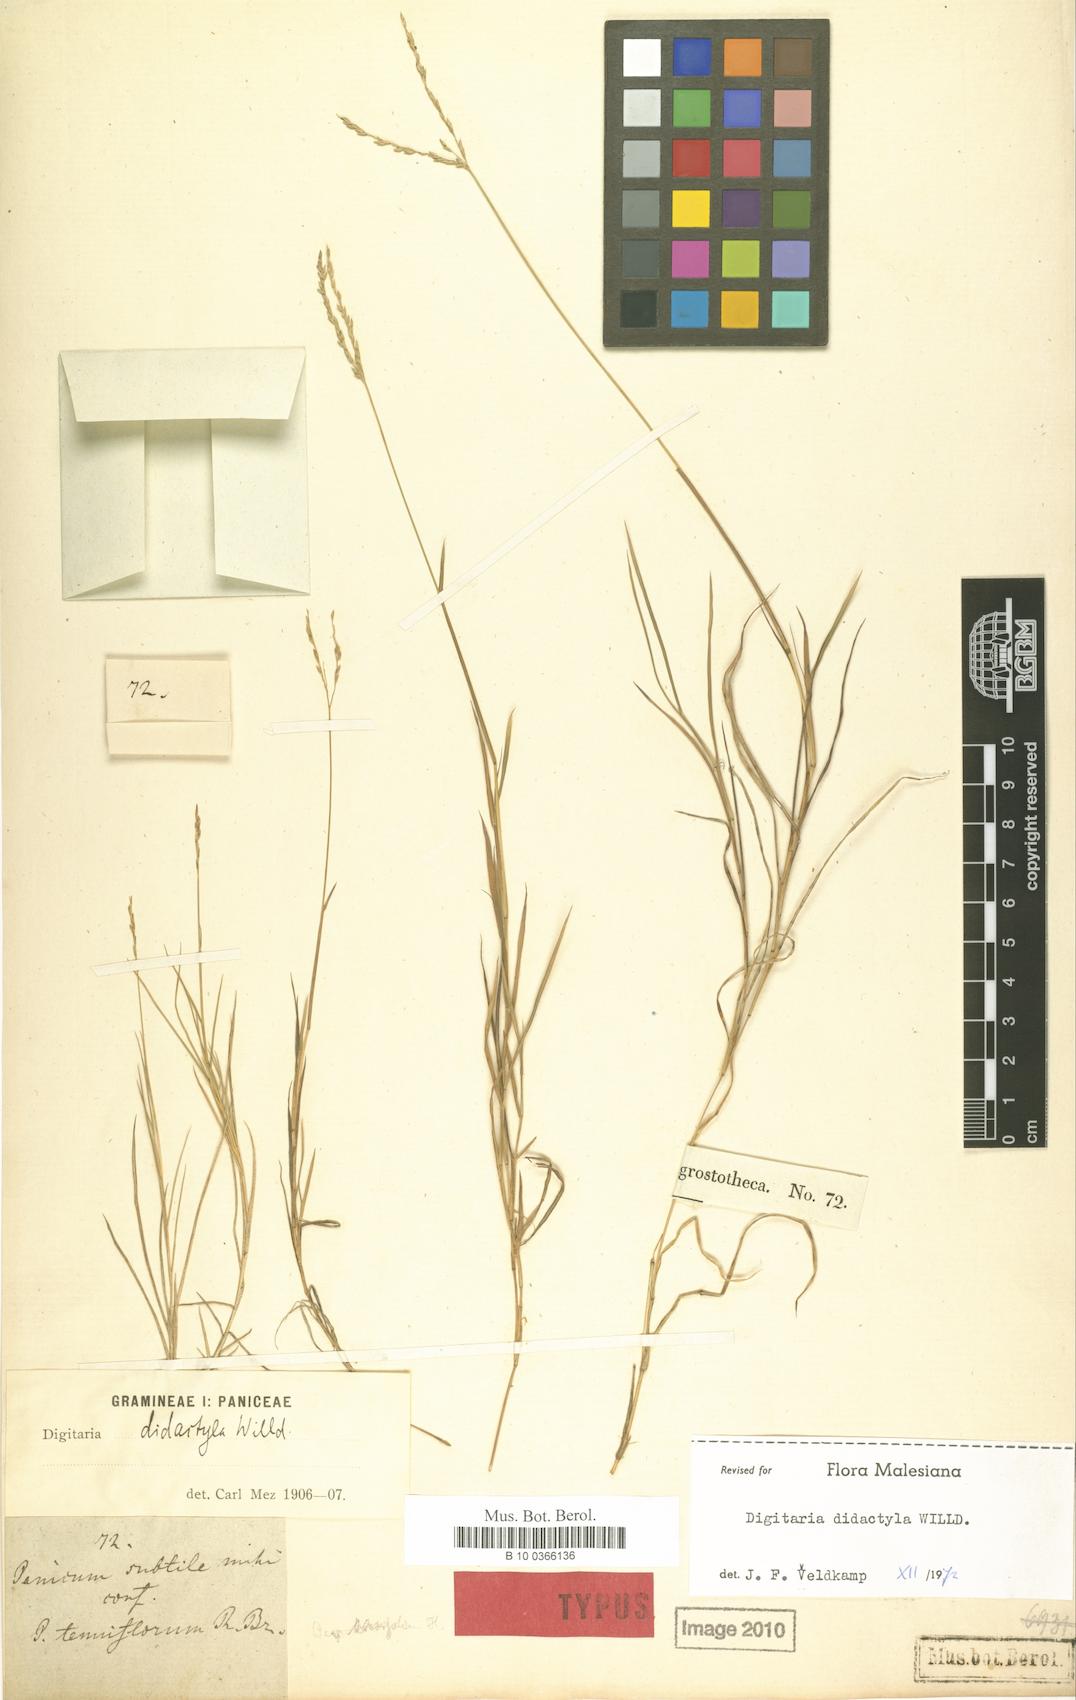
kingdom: Plantae
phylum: Tracheophyta
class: Liliopsida
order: Poales
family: Poaceae
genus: Digitaria
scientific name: Digitaria didactyla
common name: Blue couch
